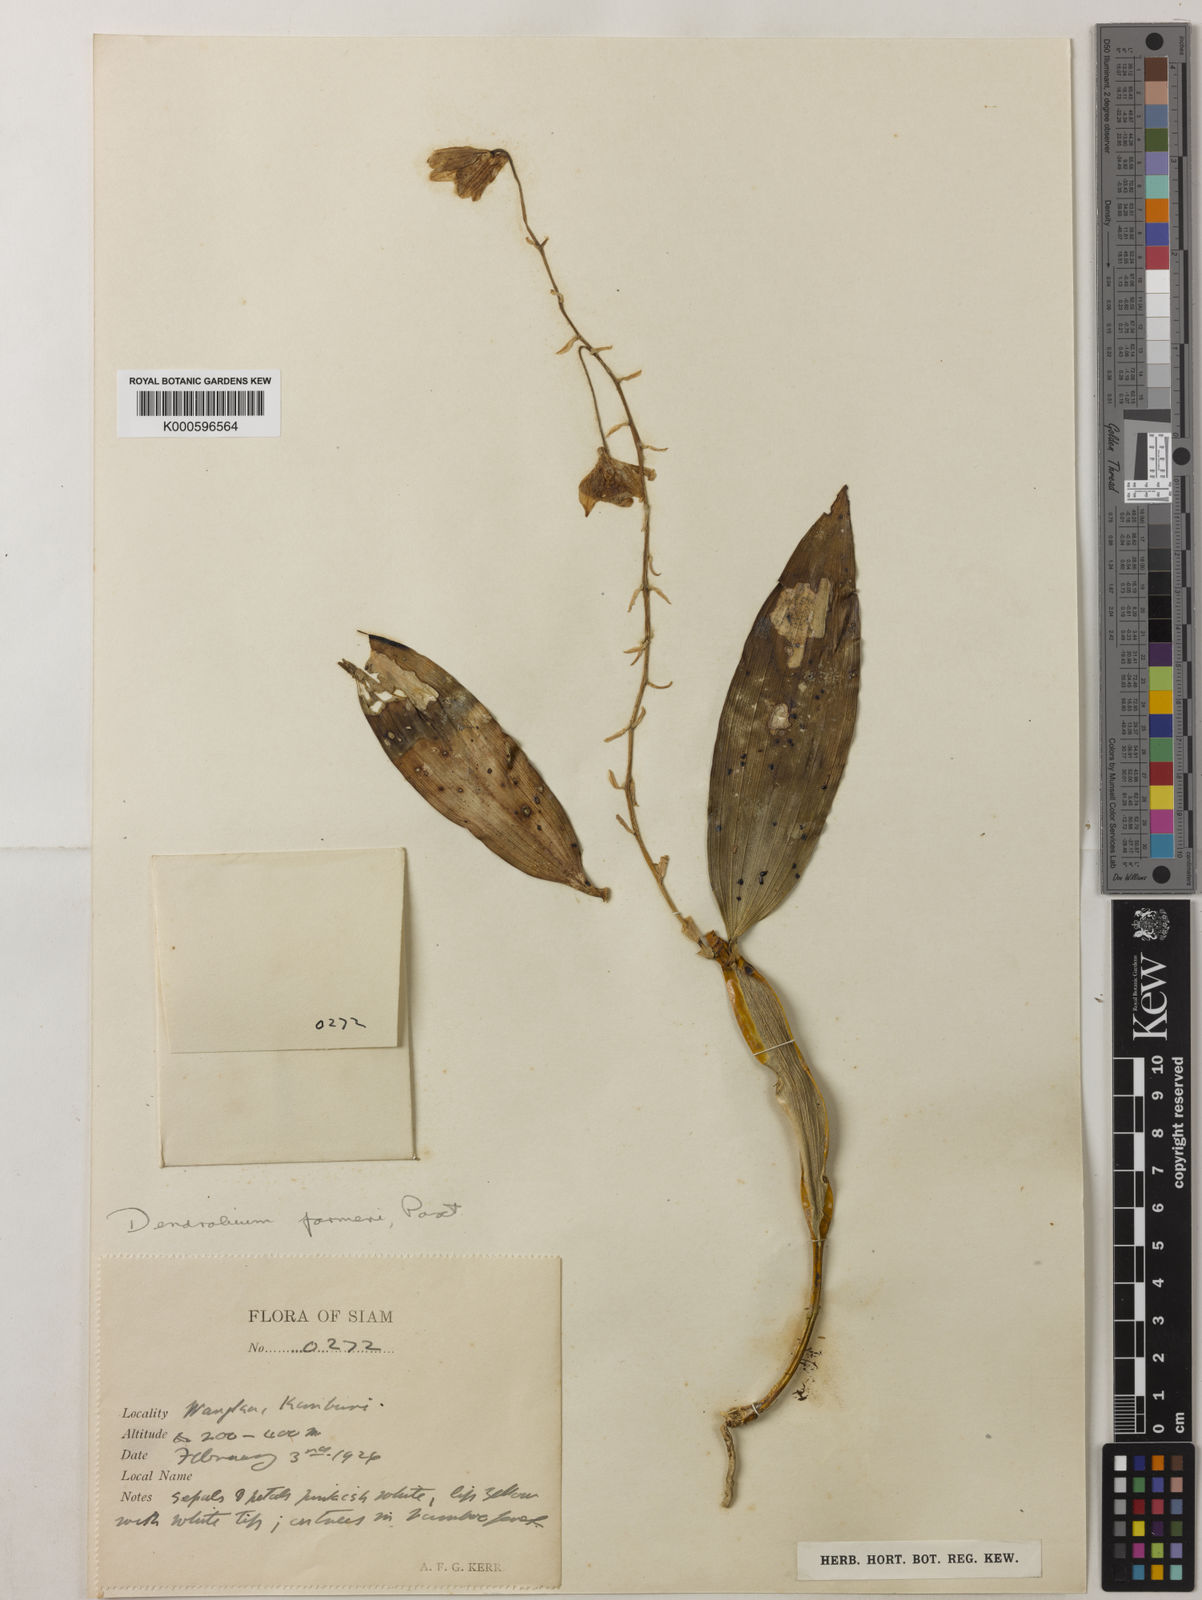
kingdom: Plantae
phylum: Tracheophyta
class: Liliopsida
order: Asparagales
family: Orchidaceae
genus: Dendrobium
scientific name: Dendrobium farmeri
